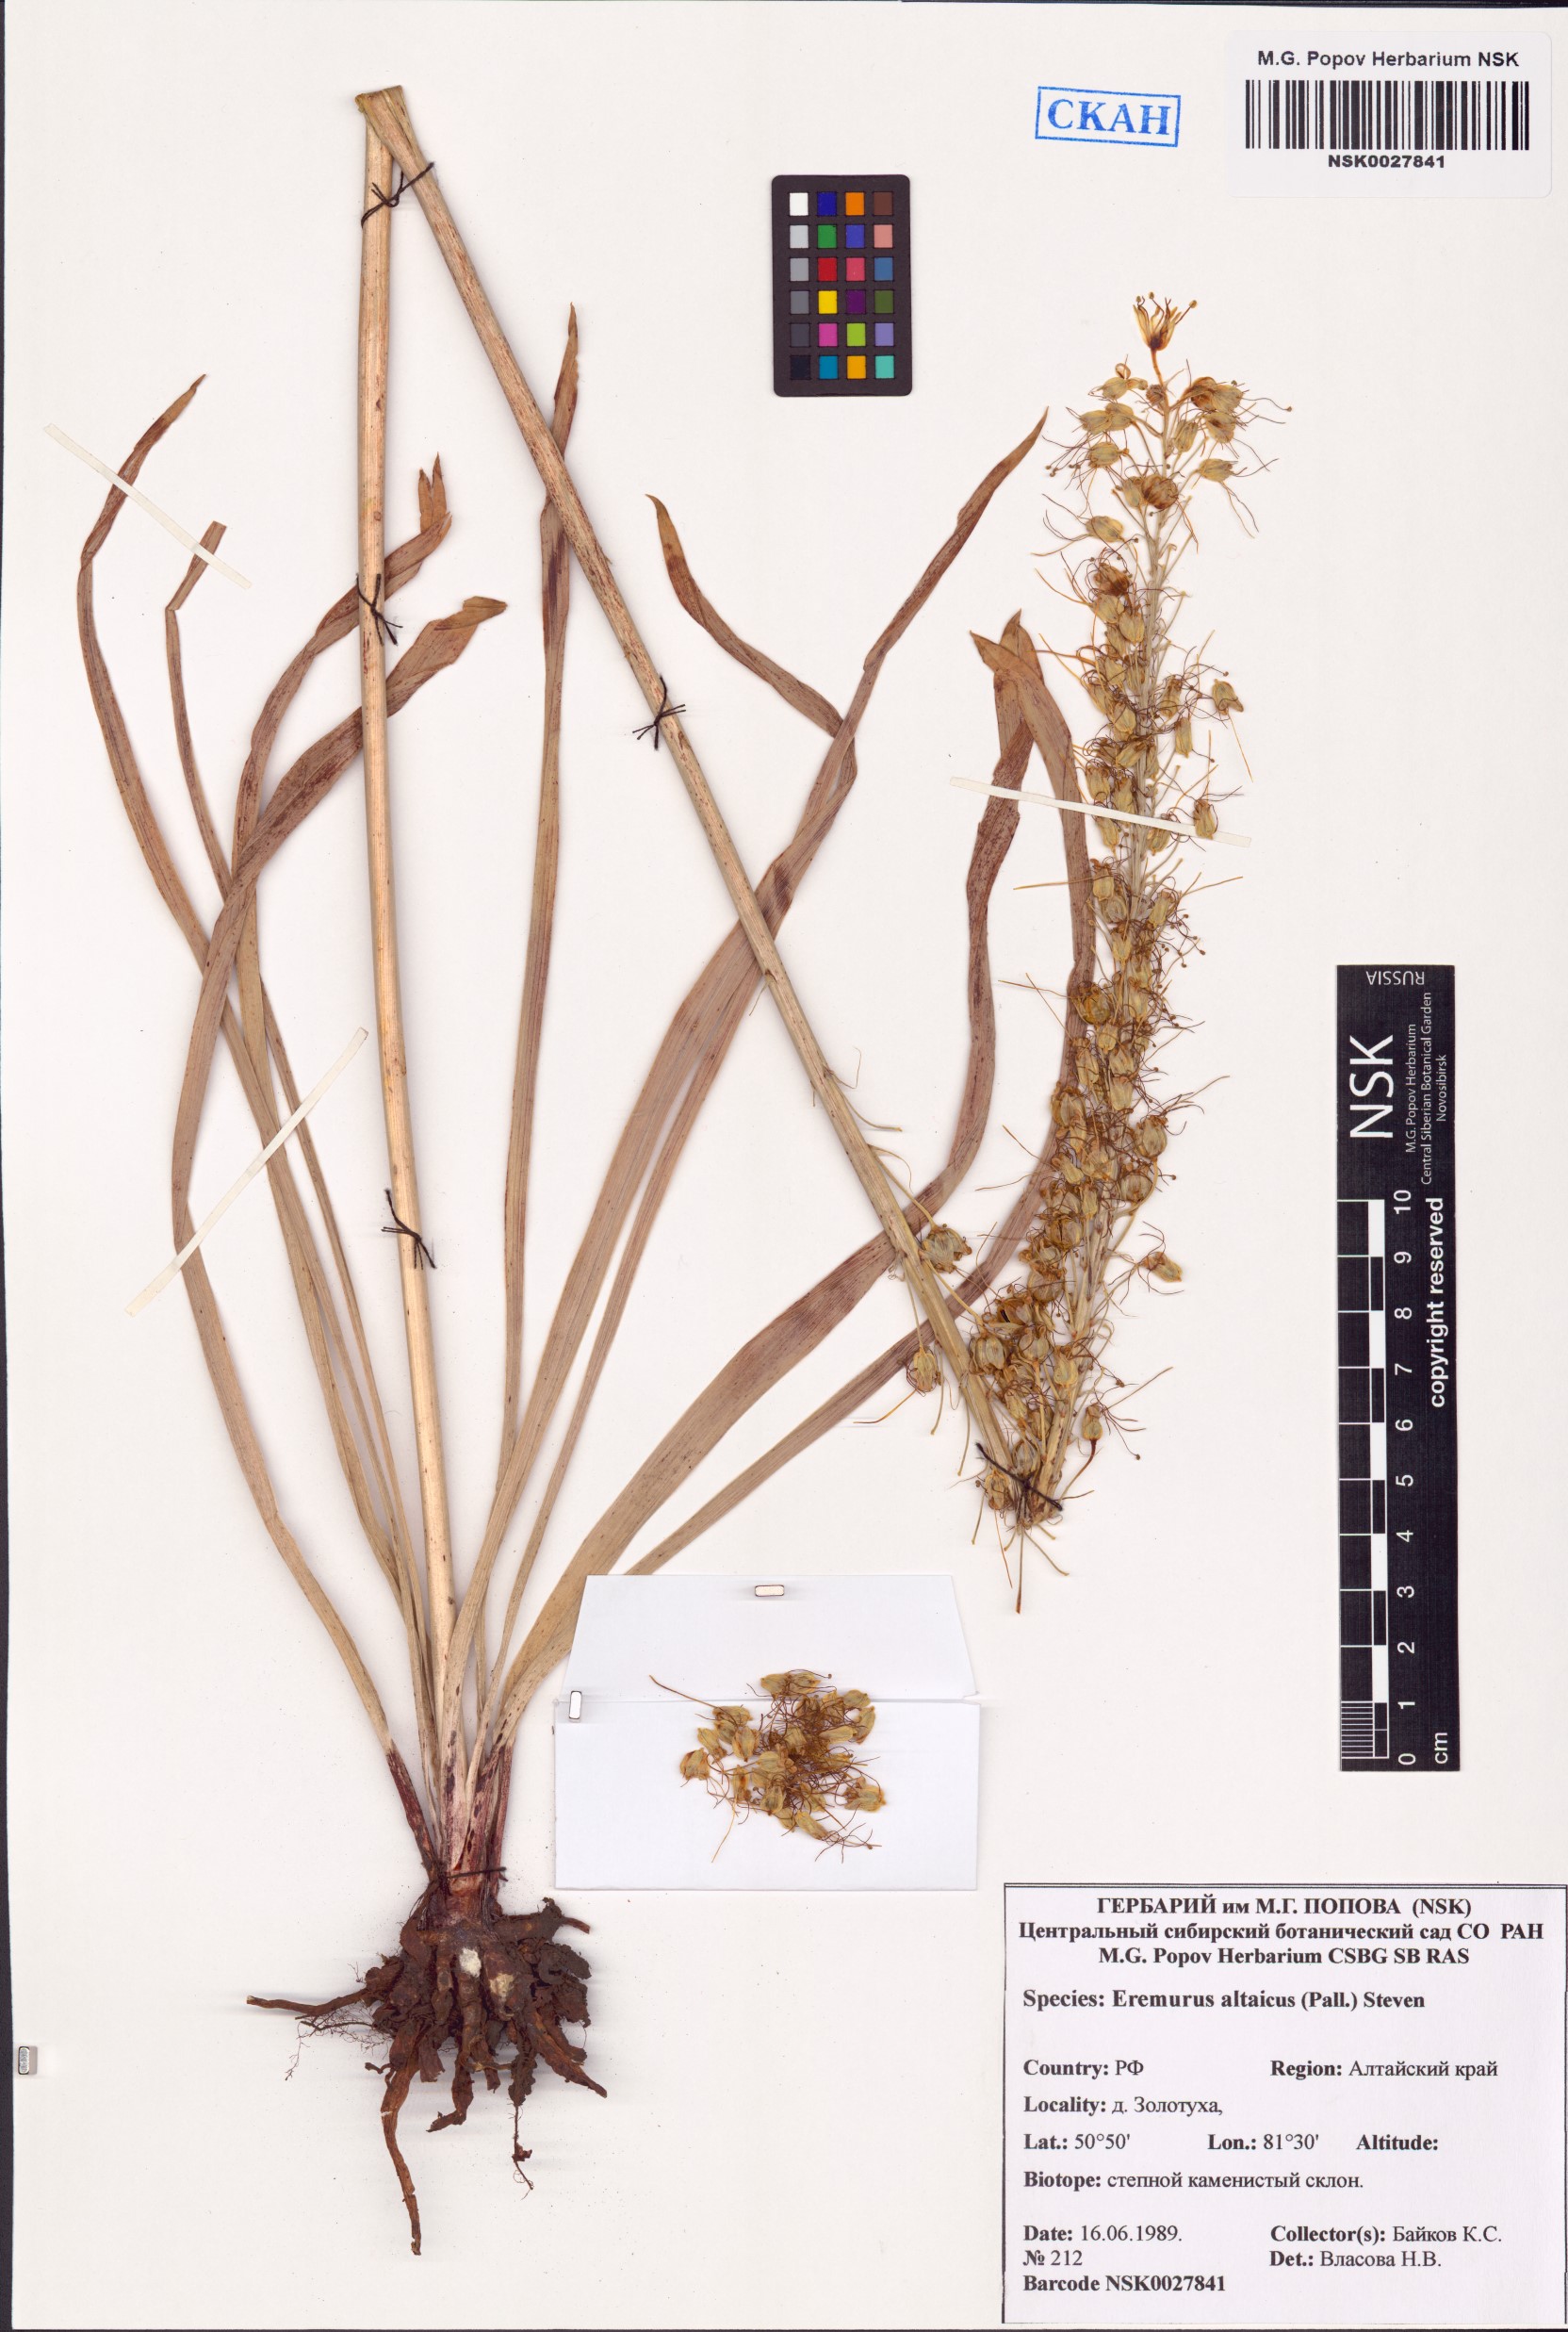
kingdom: Plantae
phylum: Tracheophyta
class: Liliopsida
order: Asparagales
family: Asphodelaceae
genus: Eremurus
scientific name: Eremurus altaicus
